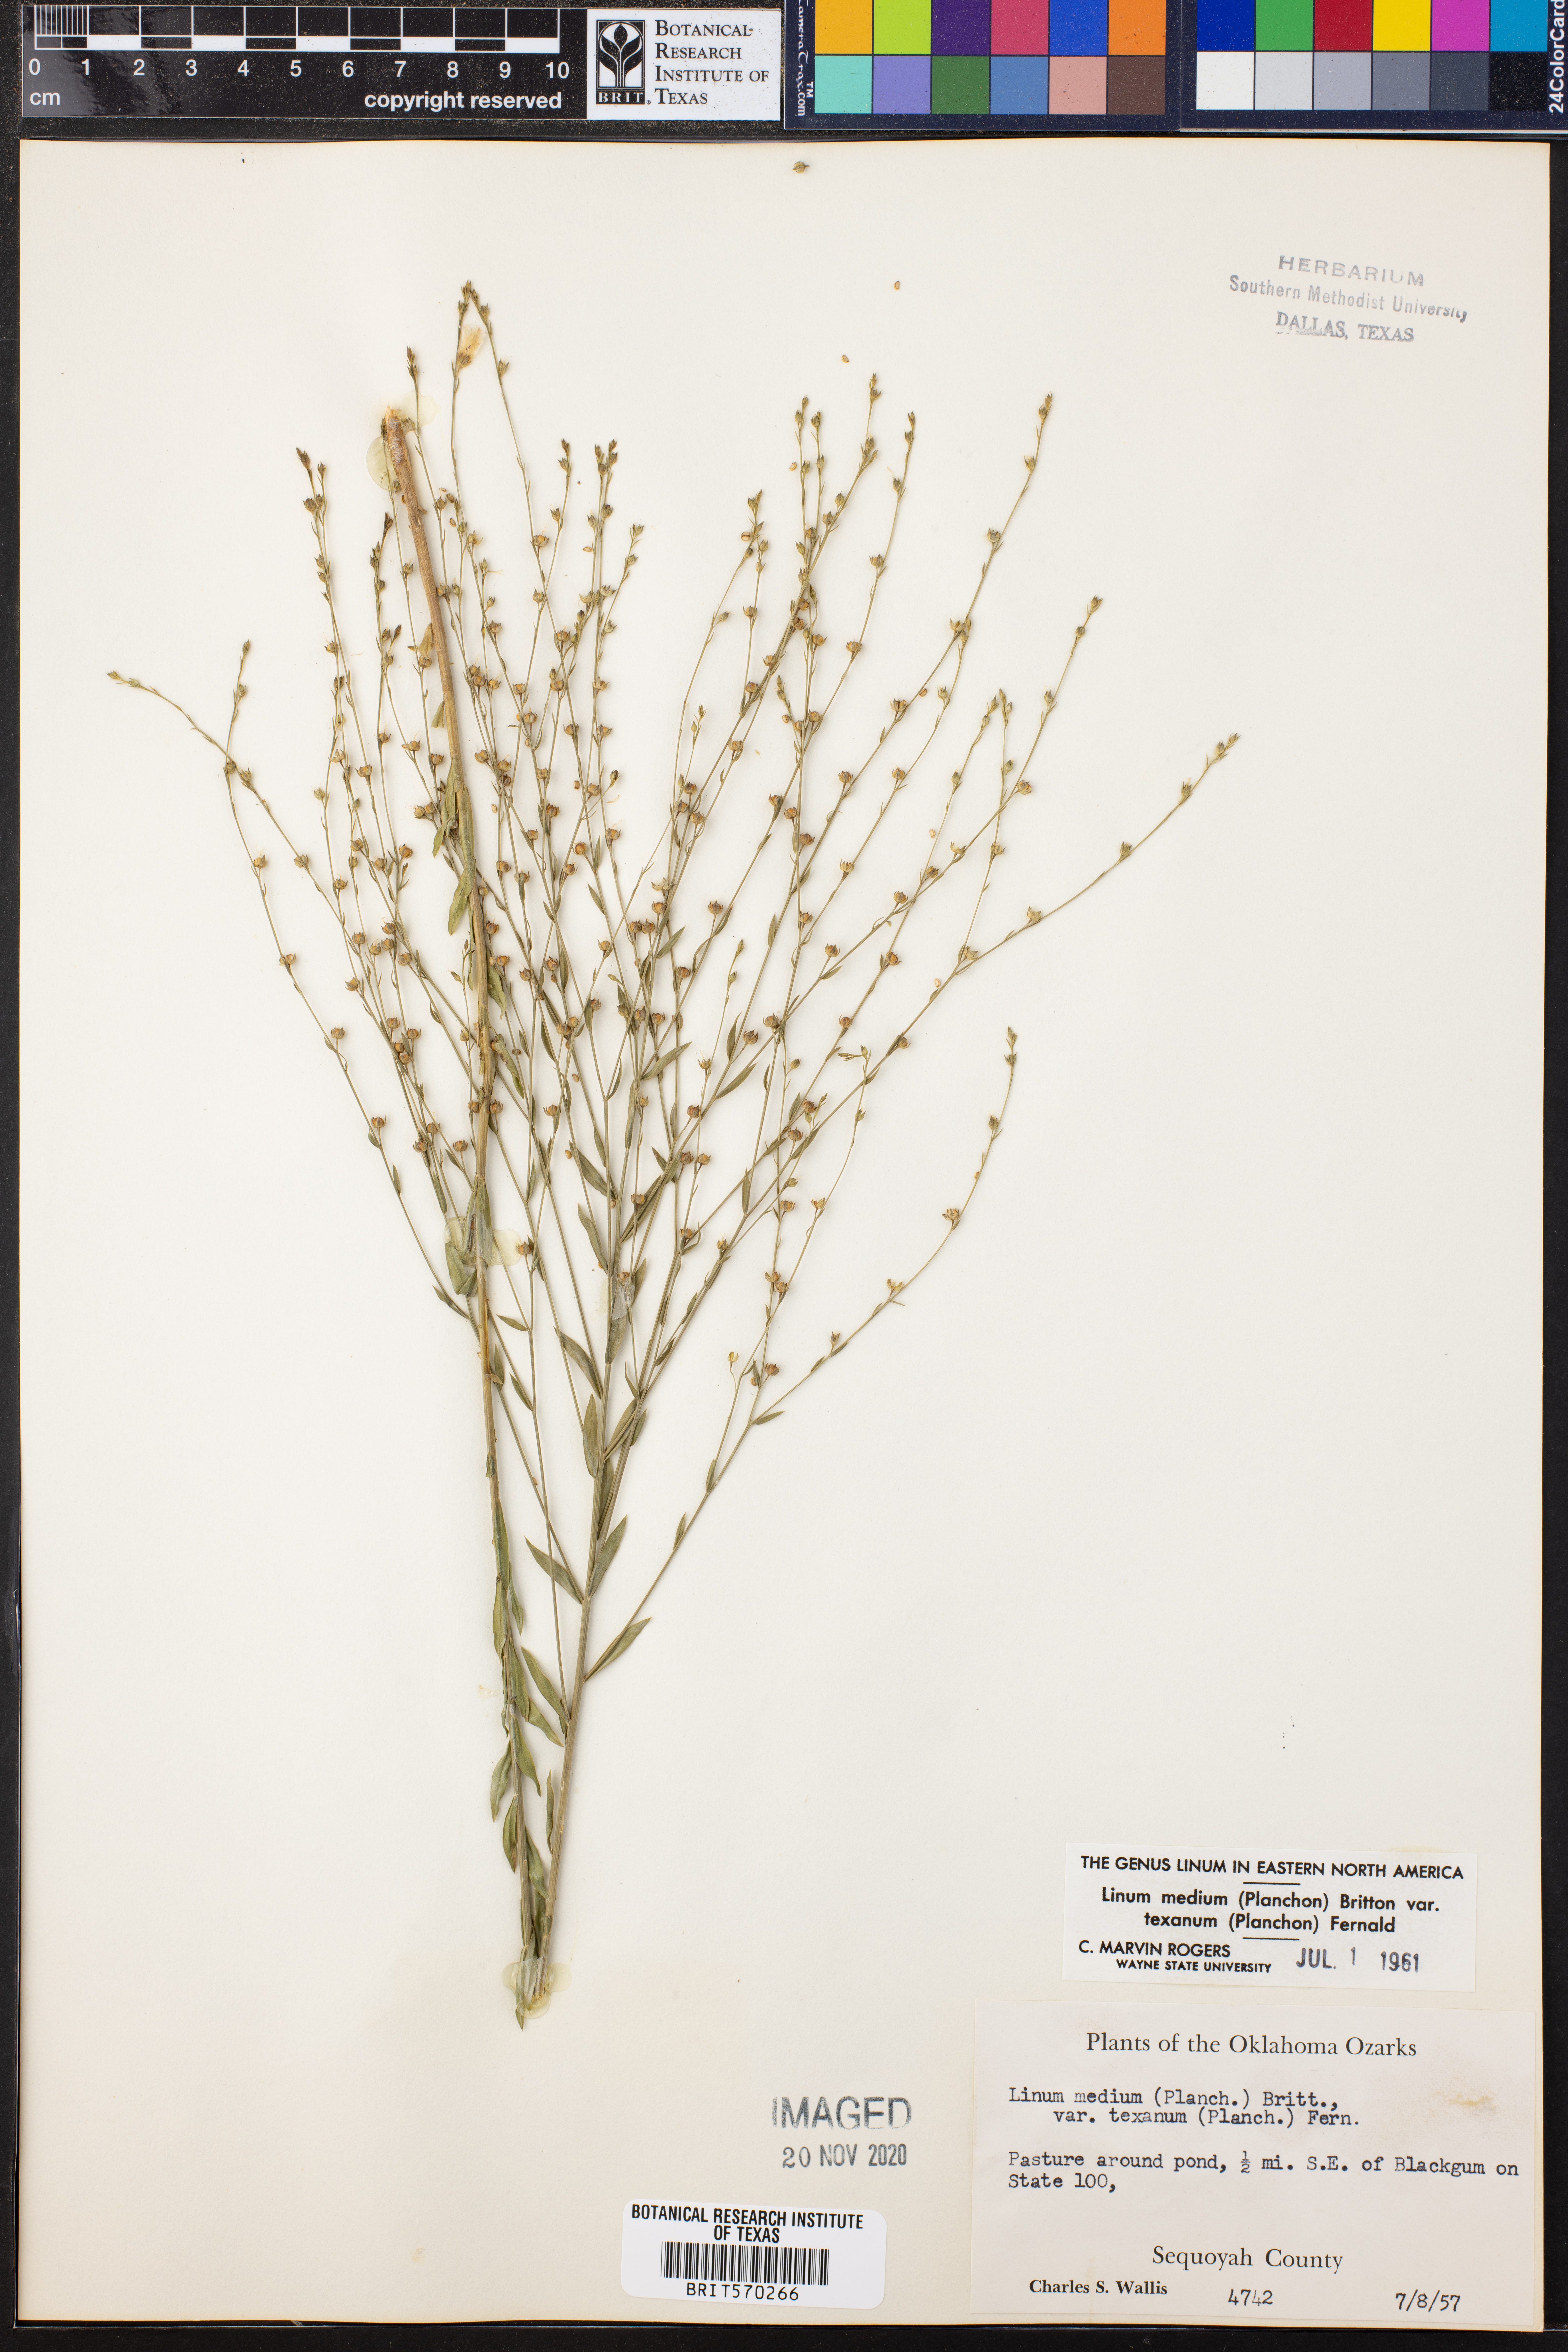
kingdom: Plantae
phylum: Tracheophyta
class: Magnoliopsida
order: Malpighiales
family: Linaceae
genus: Linum
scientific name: Linum medium
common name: Stiff yellow flax
